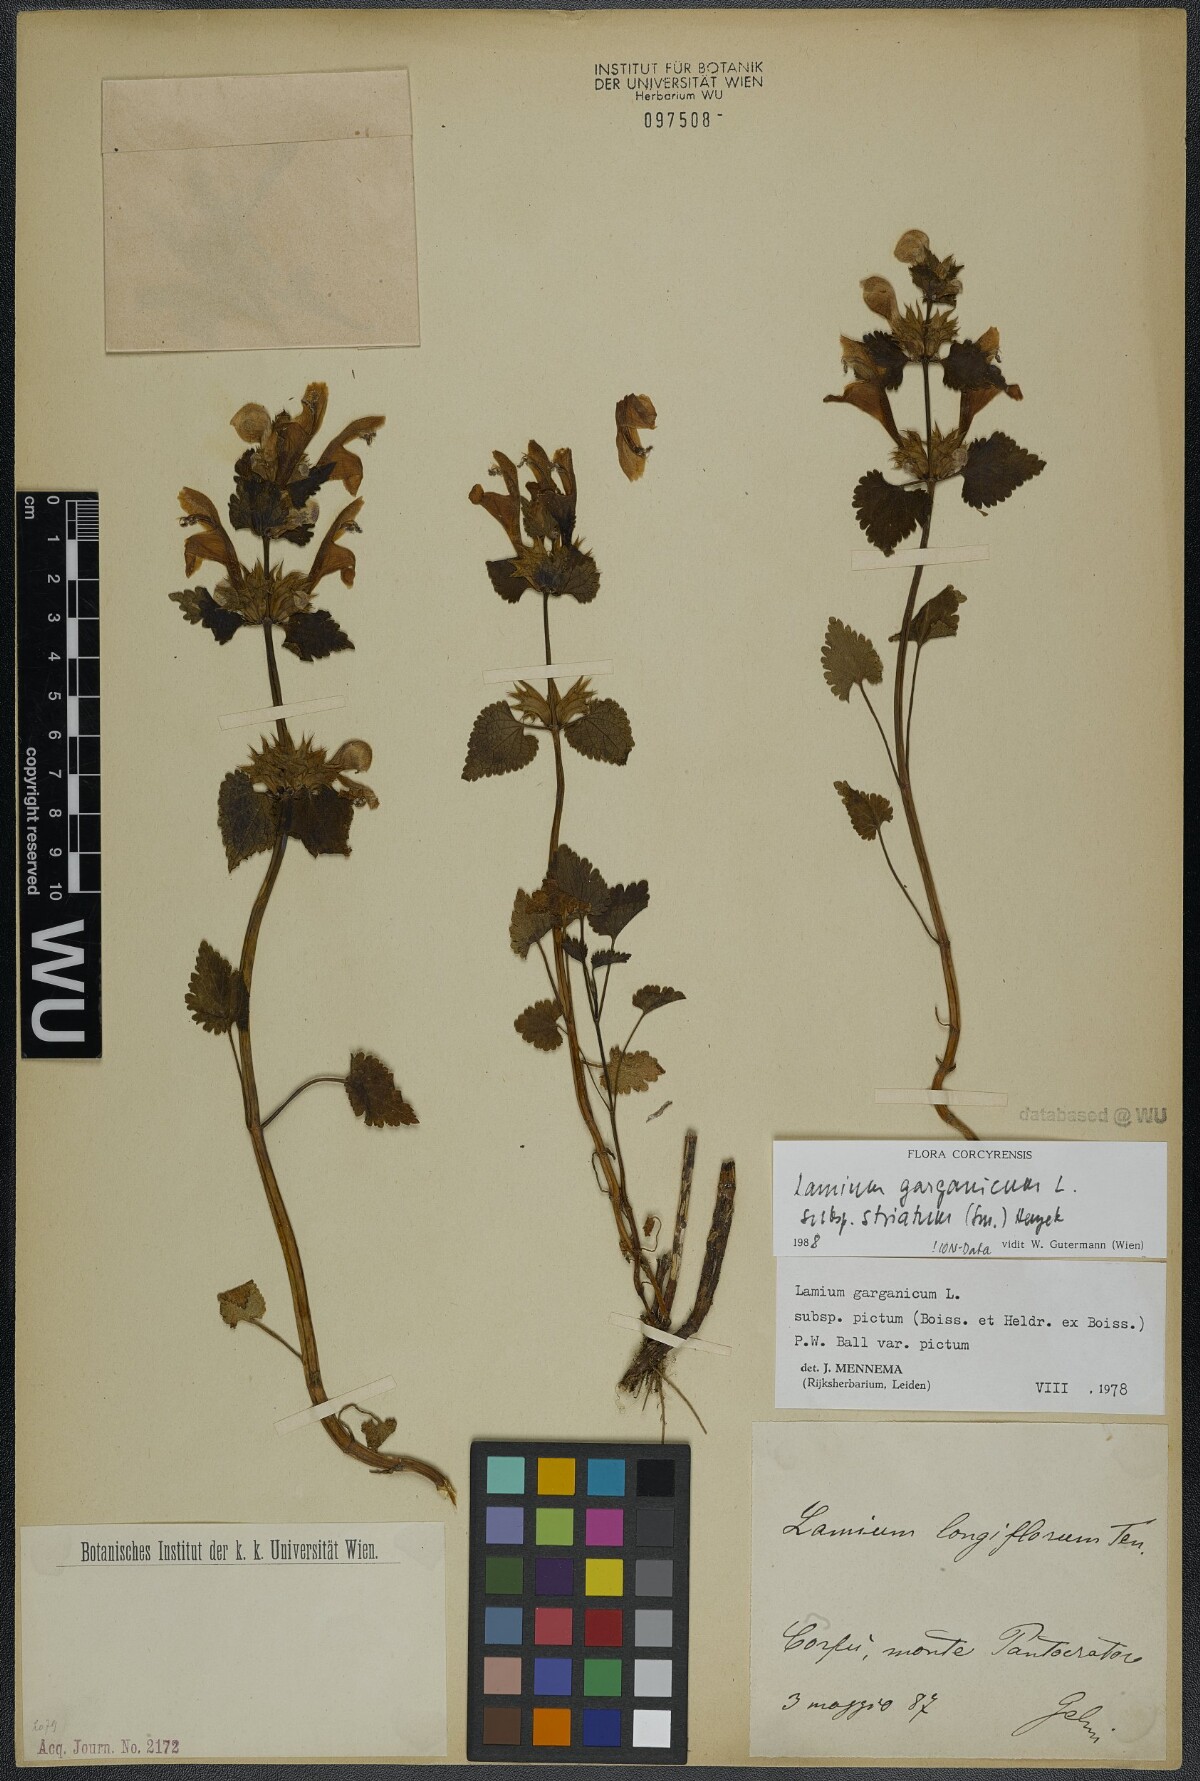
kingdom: Plantae
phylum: Tracheophyta
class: Magnoliopsida
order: Lamiales
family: Lamiaceae
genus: Lamium
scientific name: Lamium garganicum
